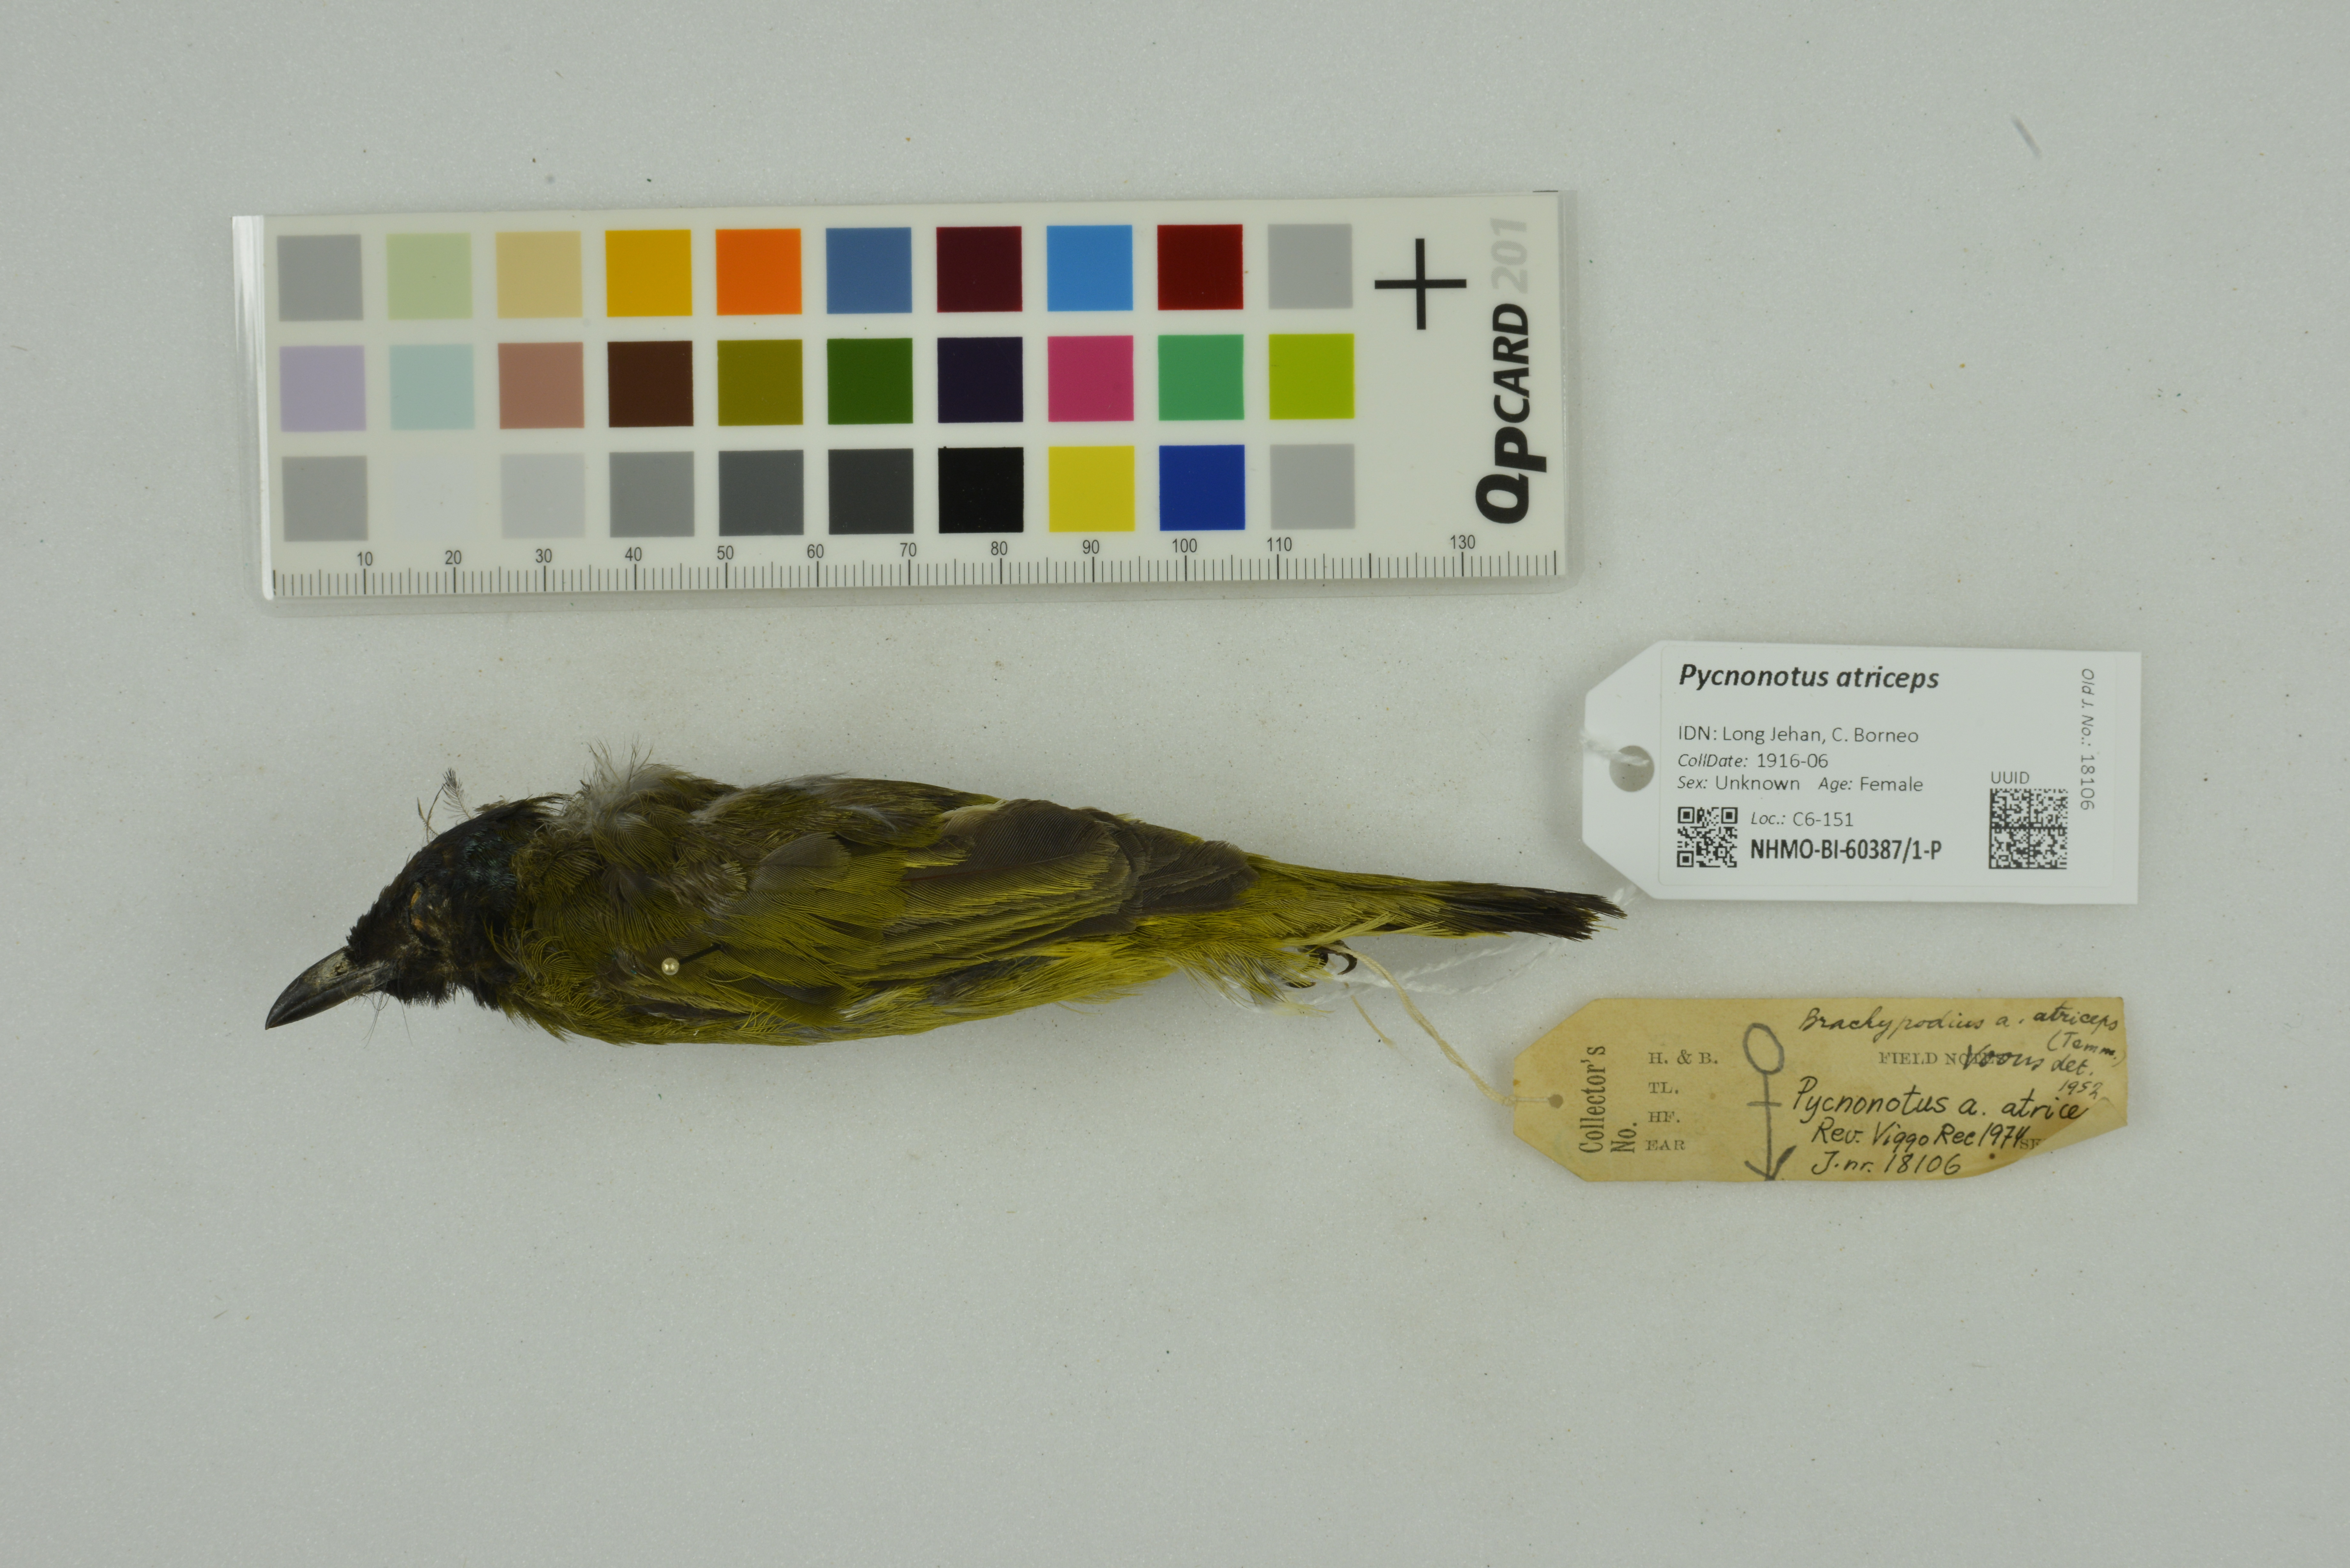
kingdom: Animalia
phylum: Chordata
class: Aves
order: Passeriformes
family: Pycnonotidae
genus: Brachypodius
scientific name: Brachypodius melanocephalos
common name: Black-headed bulbul
